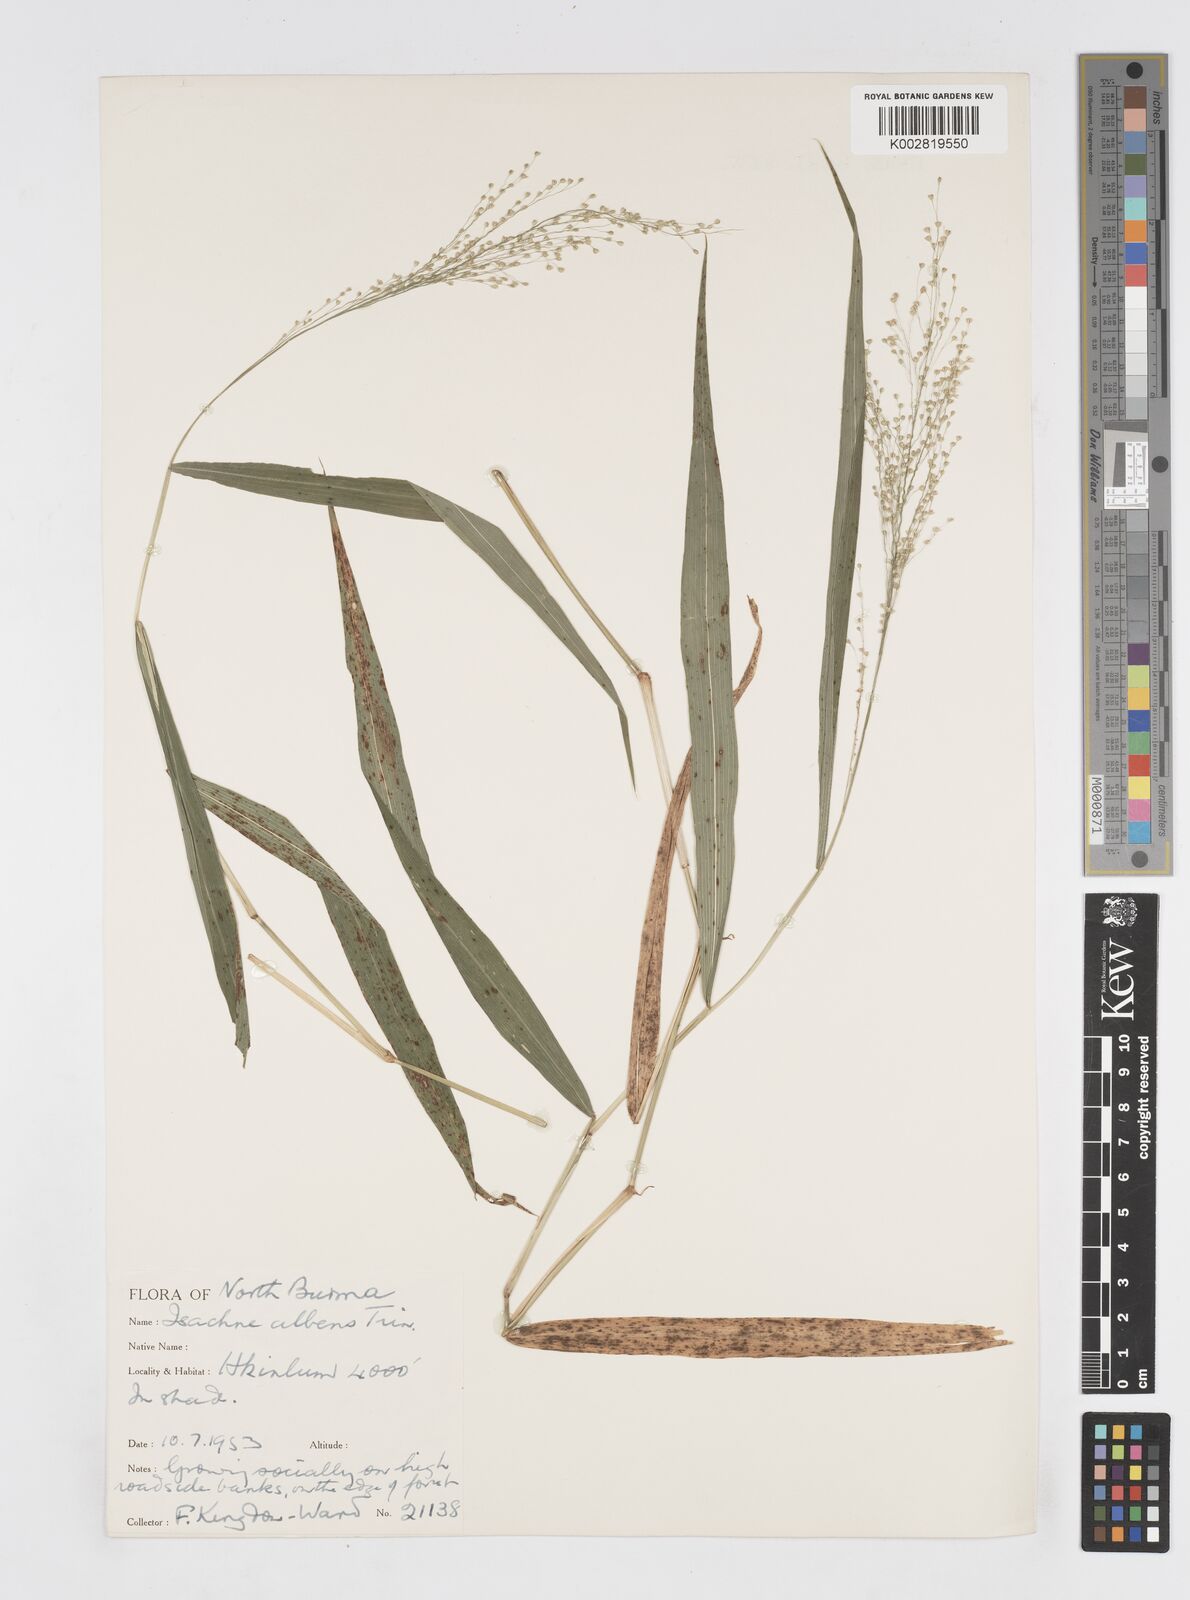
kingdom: Plantae
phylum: Tracheophyta
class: Liliopsida
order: Poales
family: Poaceae
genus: Isachne
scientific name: Isachne albens
